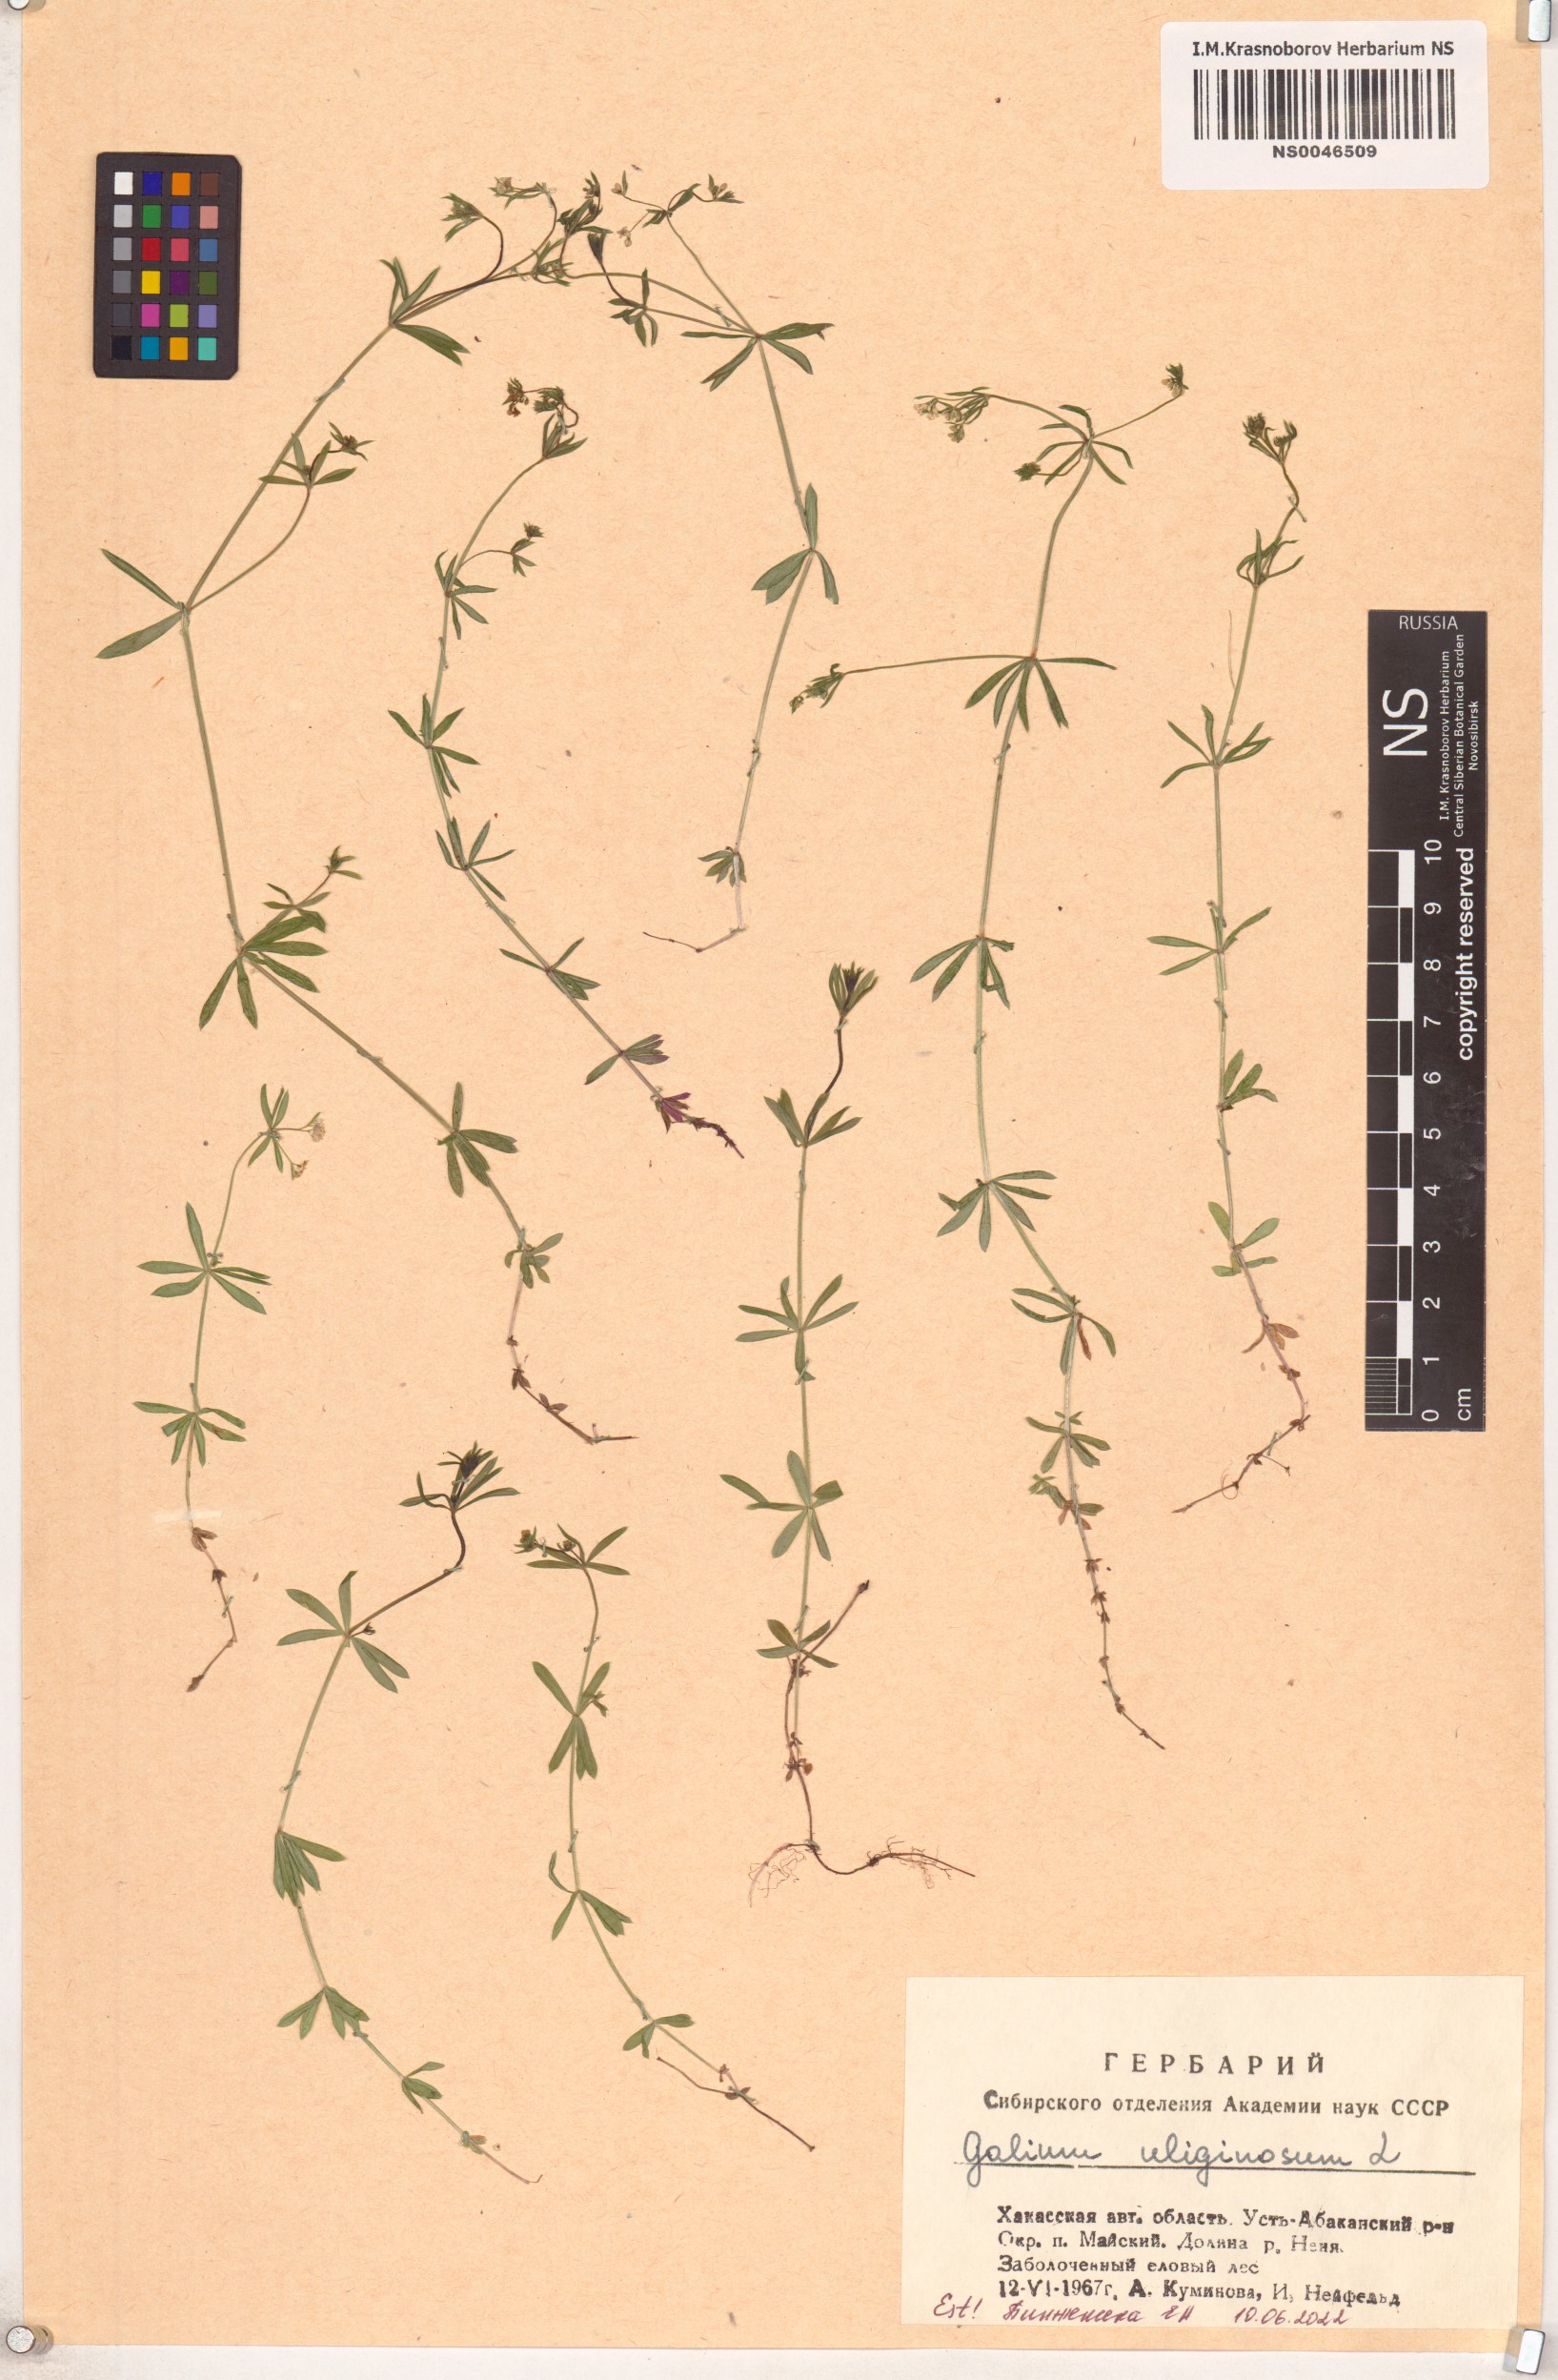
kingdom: Plantae
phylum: Tracheophyta
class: Magnoliopsida
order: Gentianales
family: Rubiaceae
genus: Galium
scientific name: Galium uliginosum
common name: Fen bedstraw
